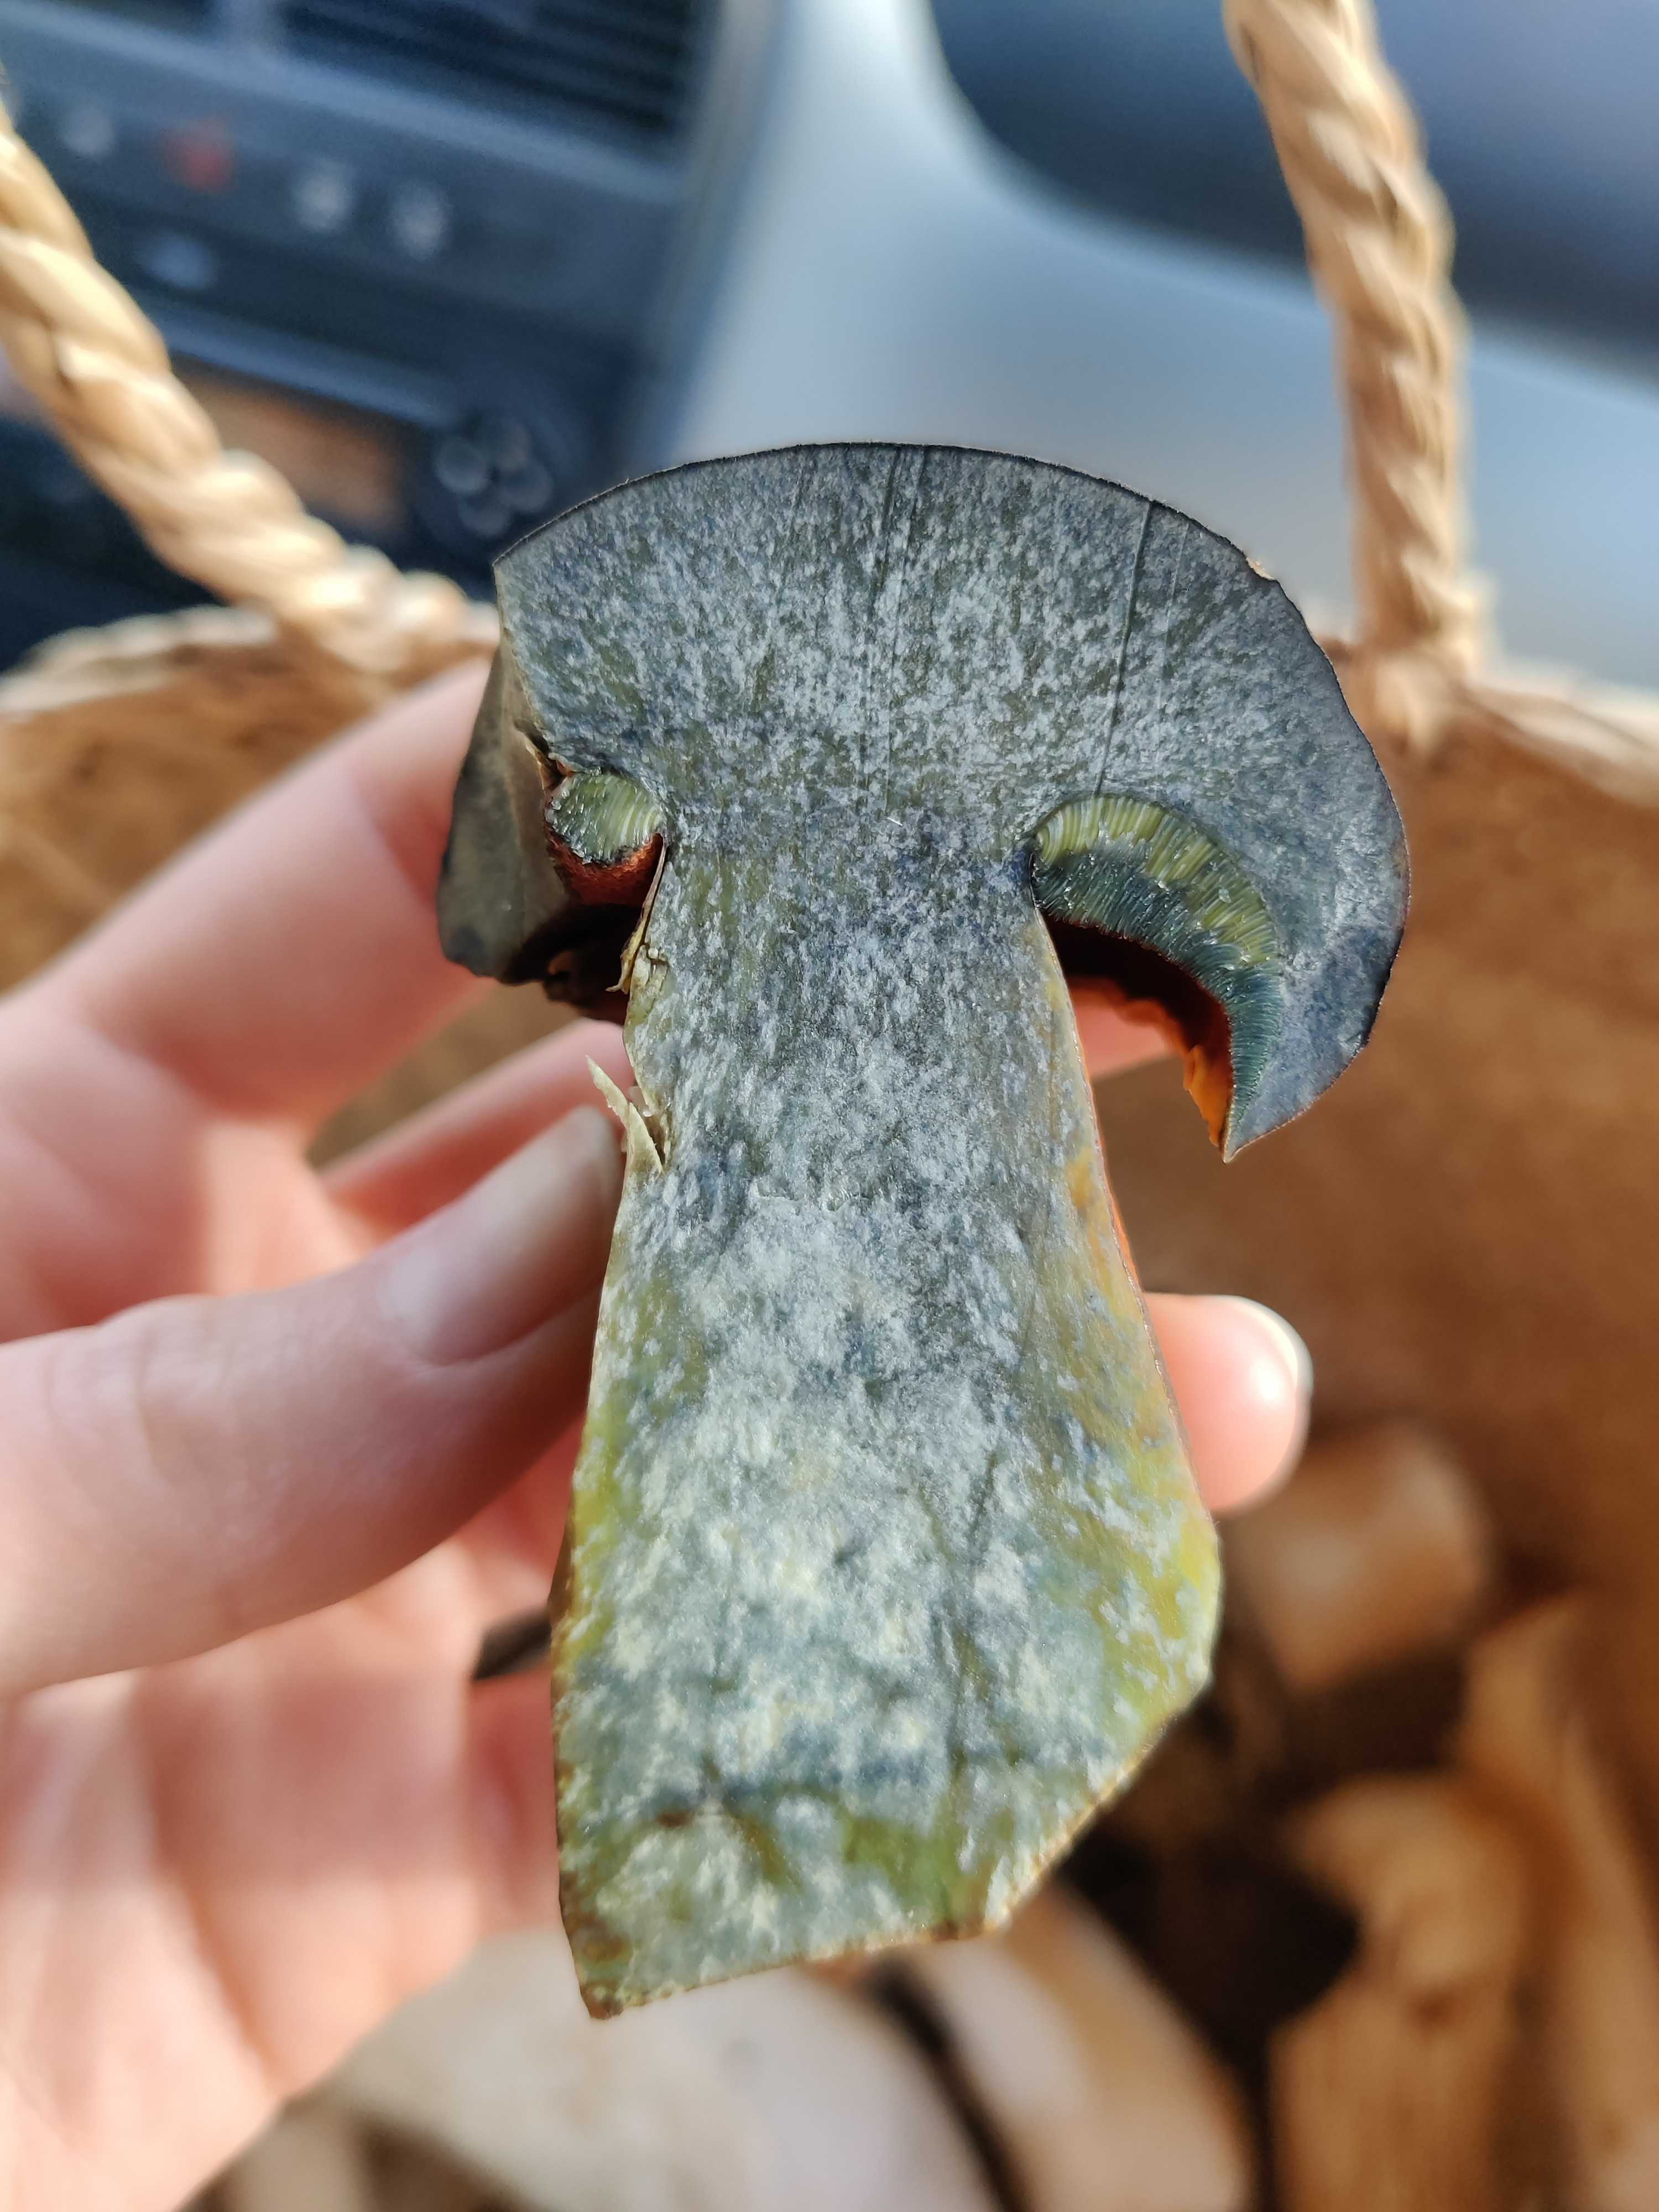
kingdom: Fungi
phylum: Basidiomycota
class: Agaricomycetes
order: Boletales
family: Boletaceae
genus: Neoboletus
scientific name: Neoboletus erythropus
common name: punktstokket indigorørhat
